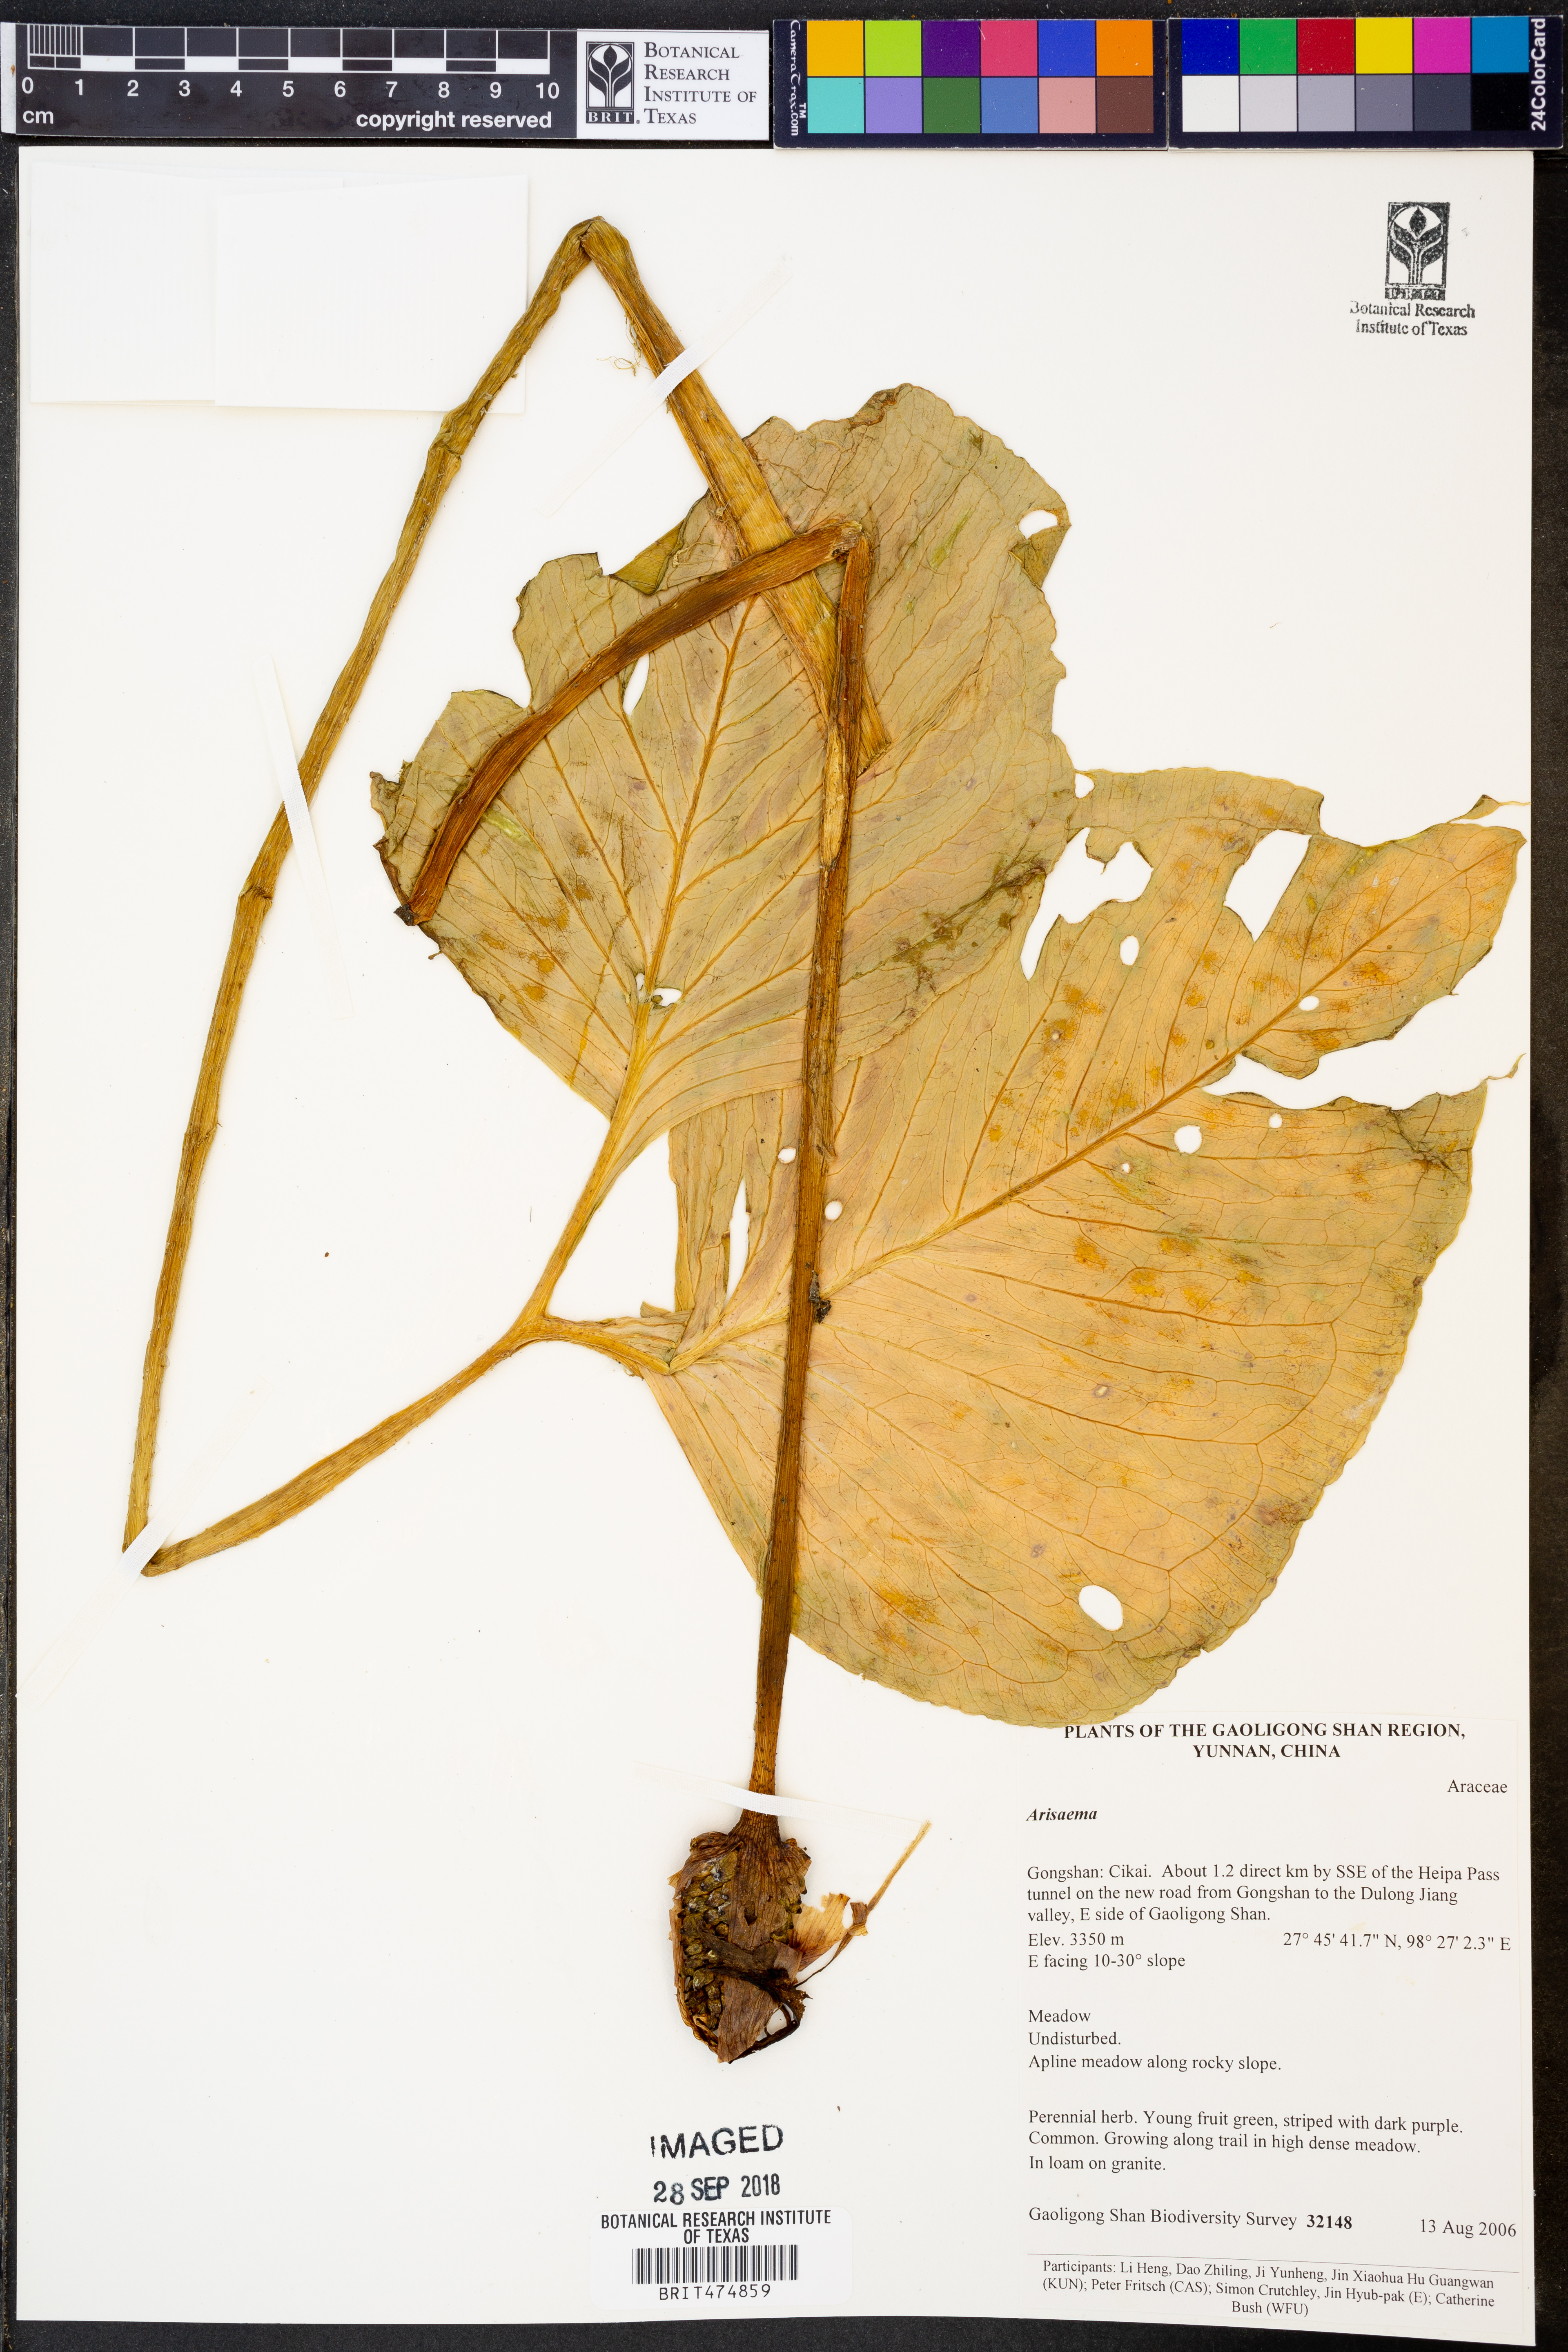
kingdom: Plantae
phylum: Tracheophyta
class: Liliopsida
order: Alismatales
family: Araceae
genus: Arisaema
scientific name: Arisaema
